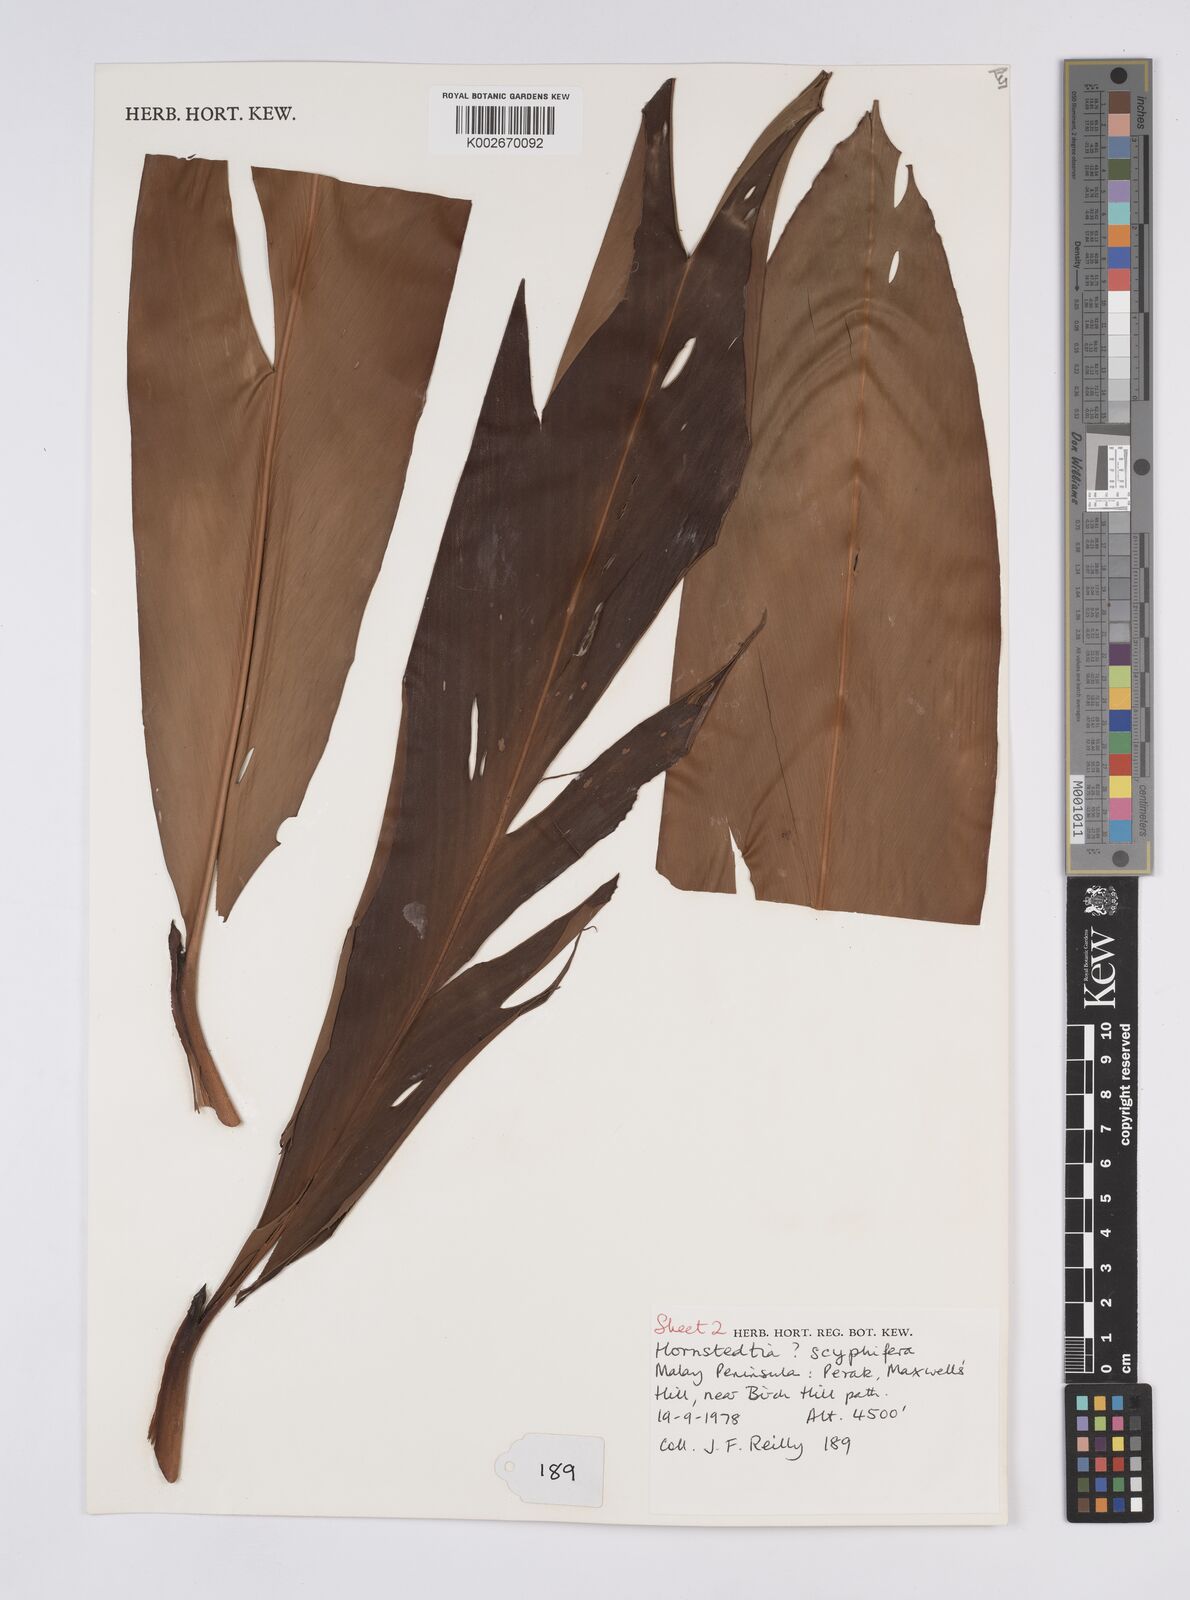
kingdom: Plantae
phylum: Tracheophyta
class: Liliopsida
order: Zingiberales
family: Zingiberaceae
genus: Hornstedtia
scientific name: Hornstedtia
